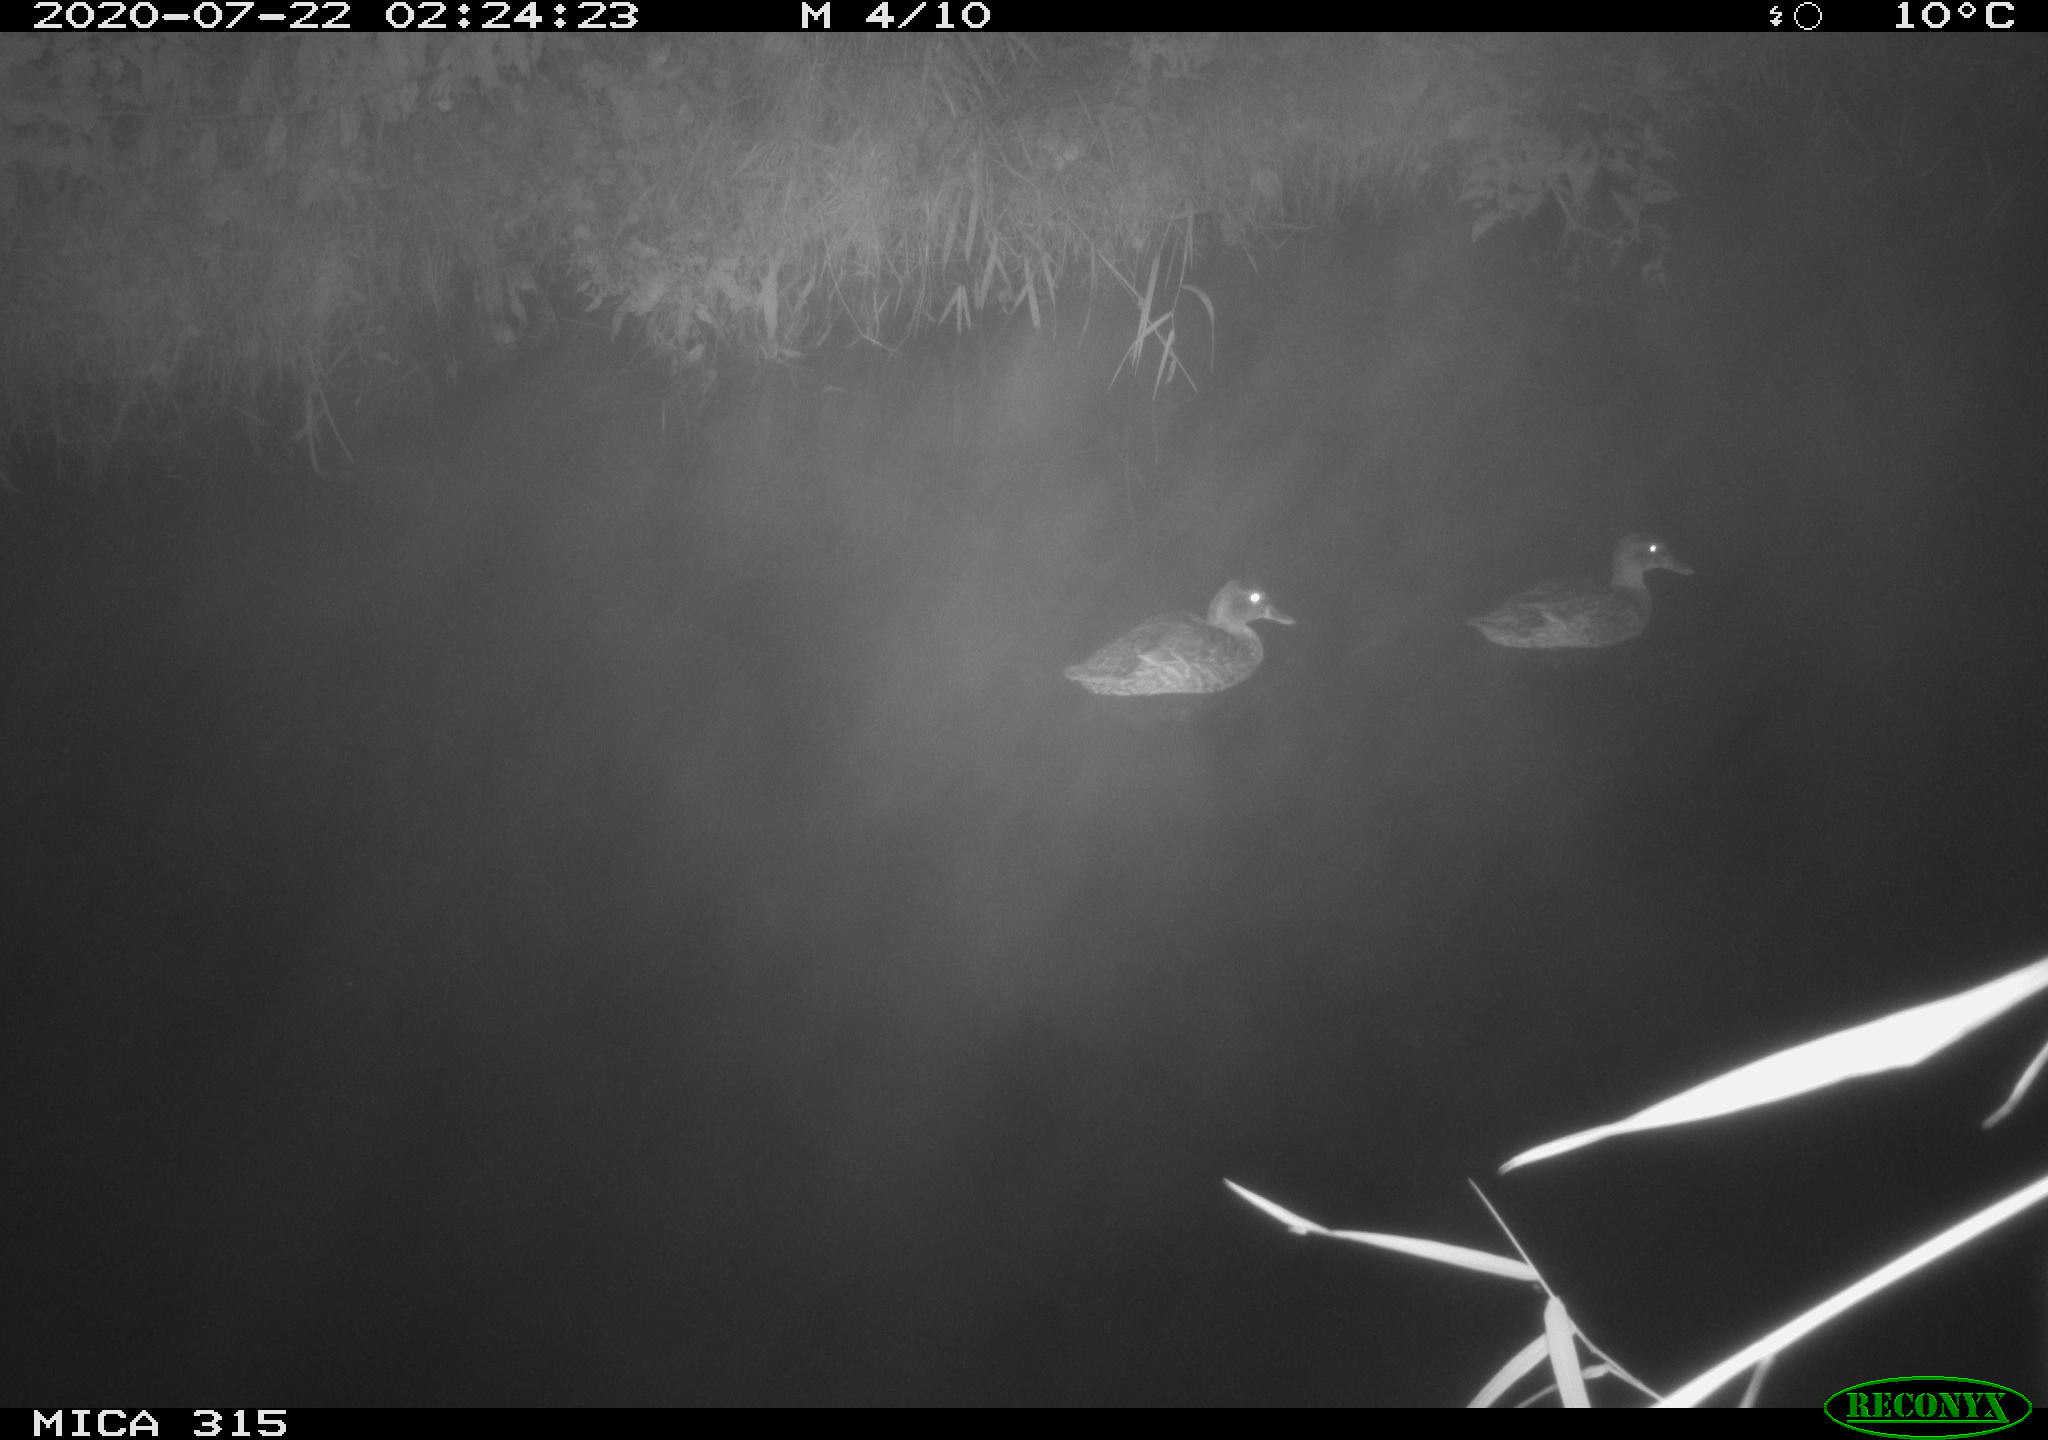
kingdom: Animalia
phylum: Chordata
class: Aves
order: Anseriformes
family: Anatidae
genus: Anas
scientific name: Anas platyrhynchos
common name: Mallard
